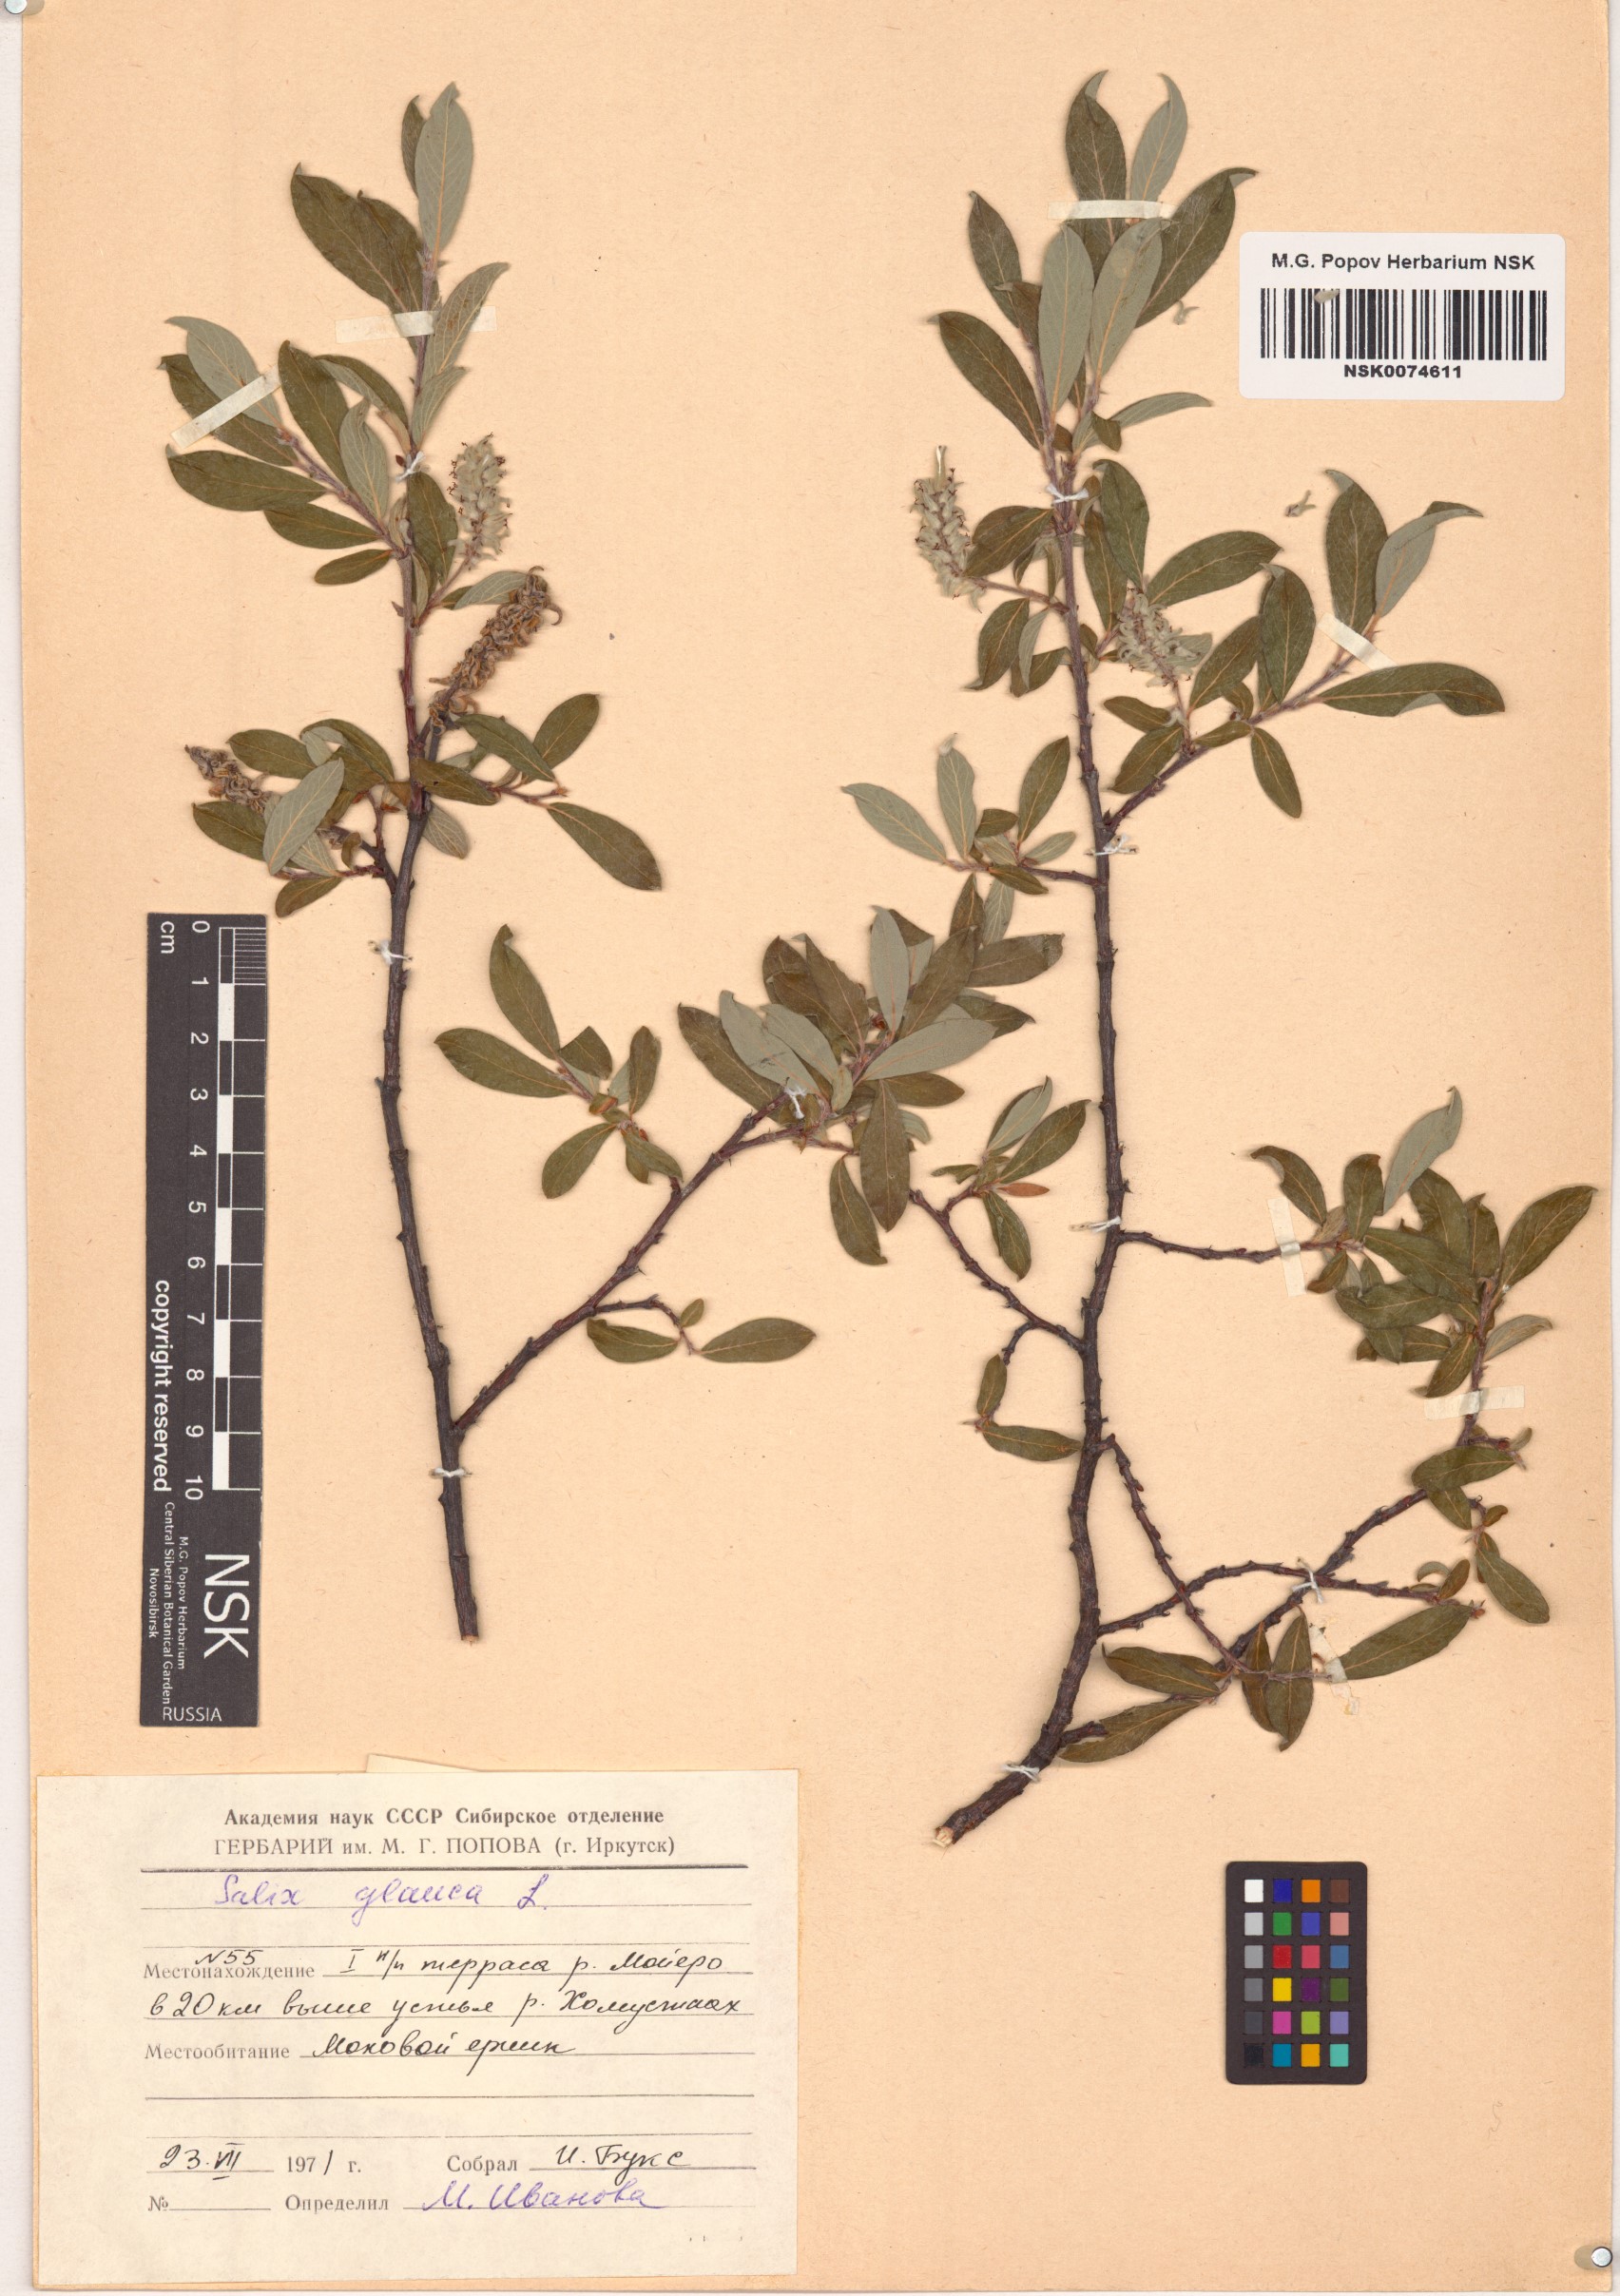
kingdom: Plantae
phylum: Tracheophyta
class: Magnoliopsida
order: Malpighiales
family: Salicaceae
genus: Salix
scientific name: Salix glauca
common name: Glaucous willow
